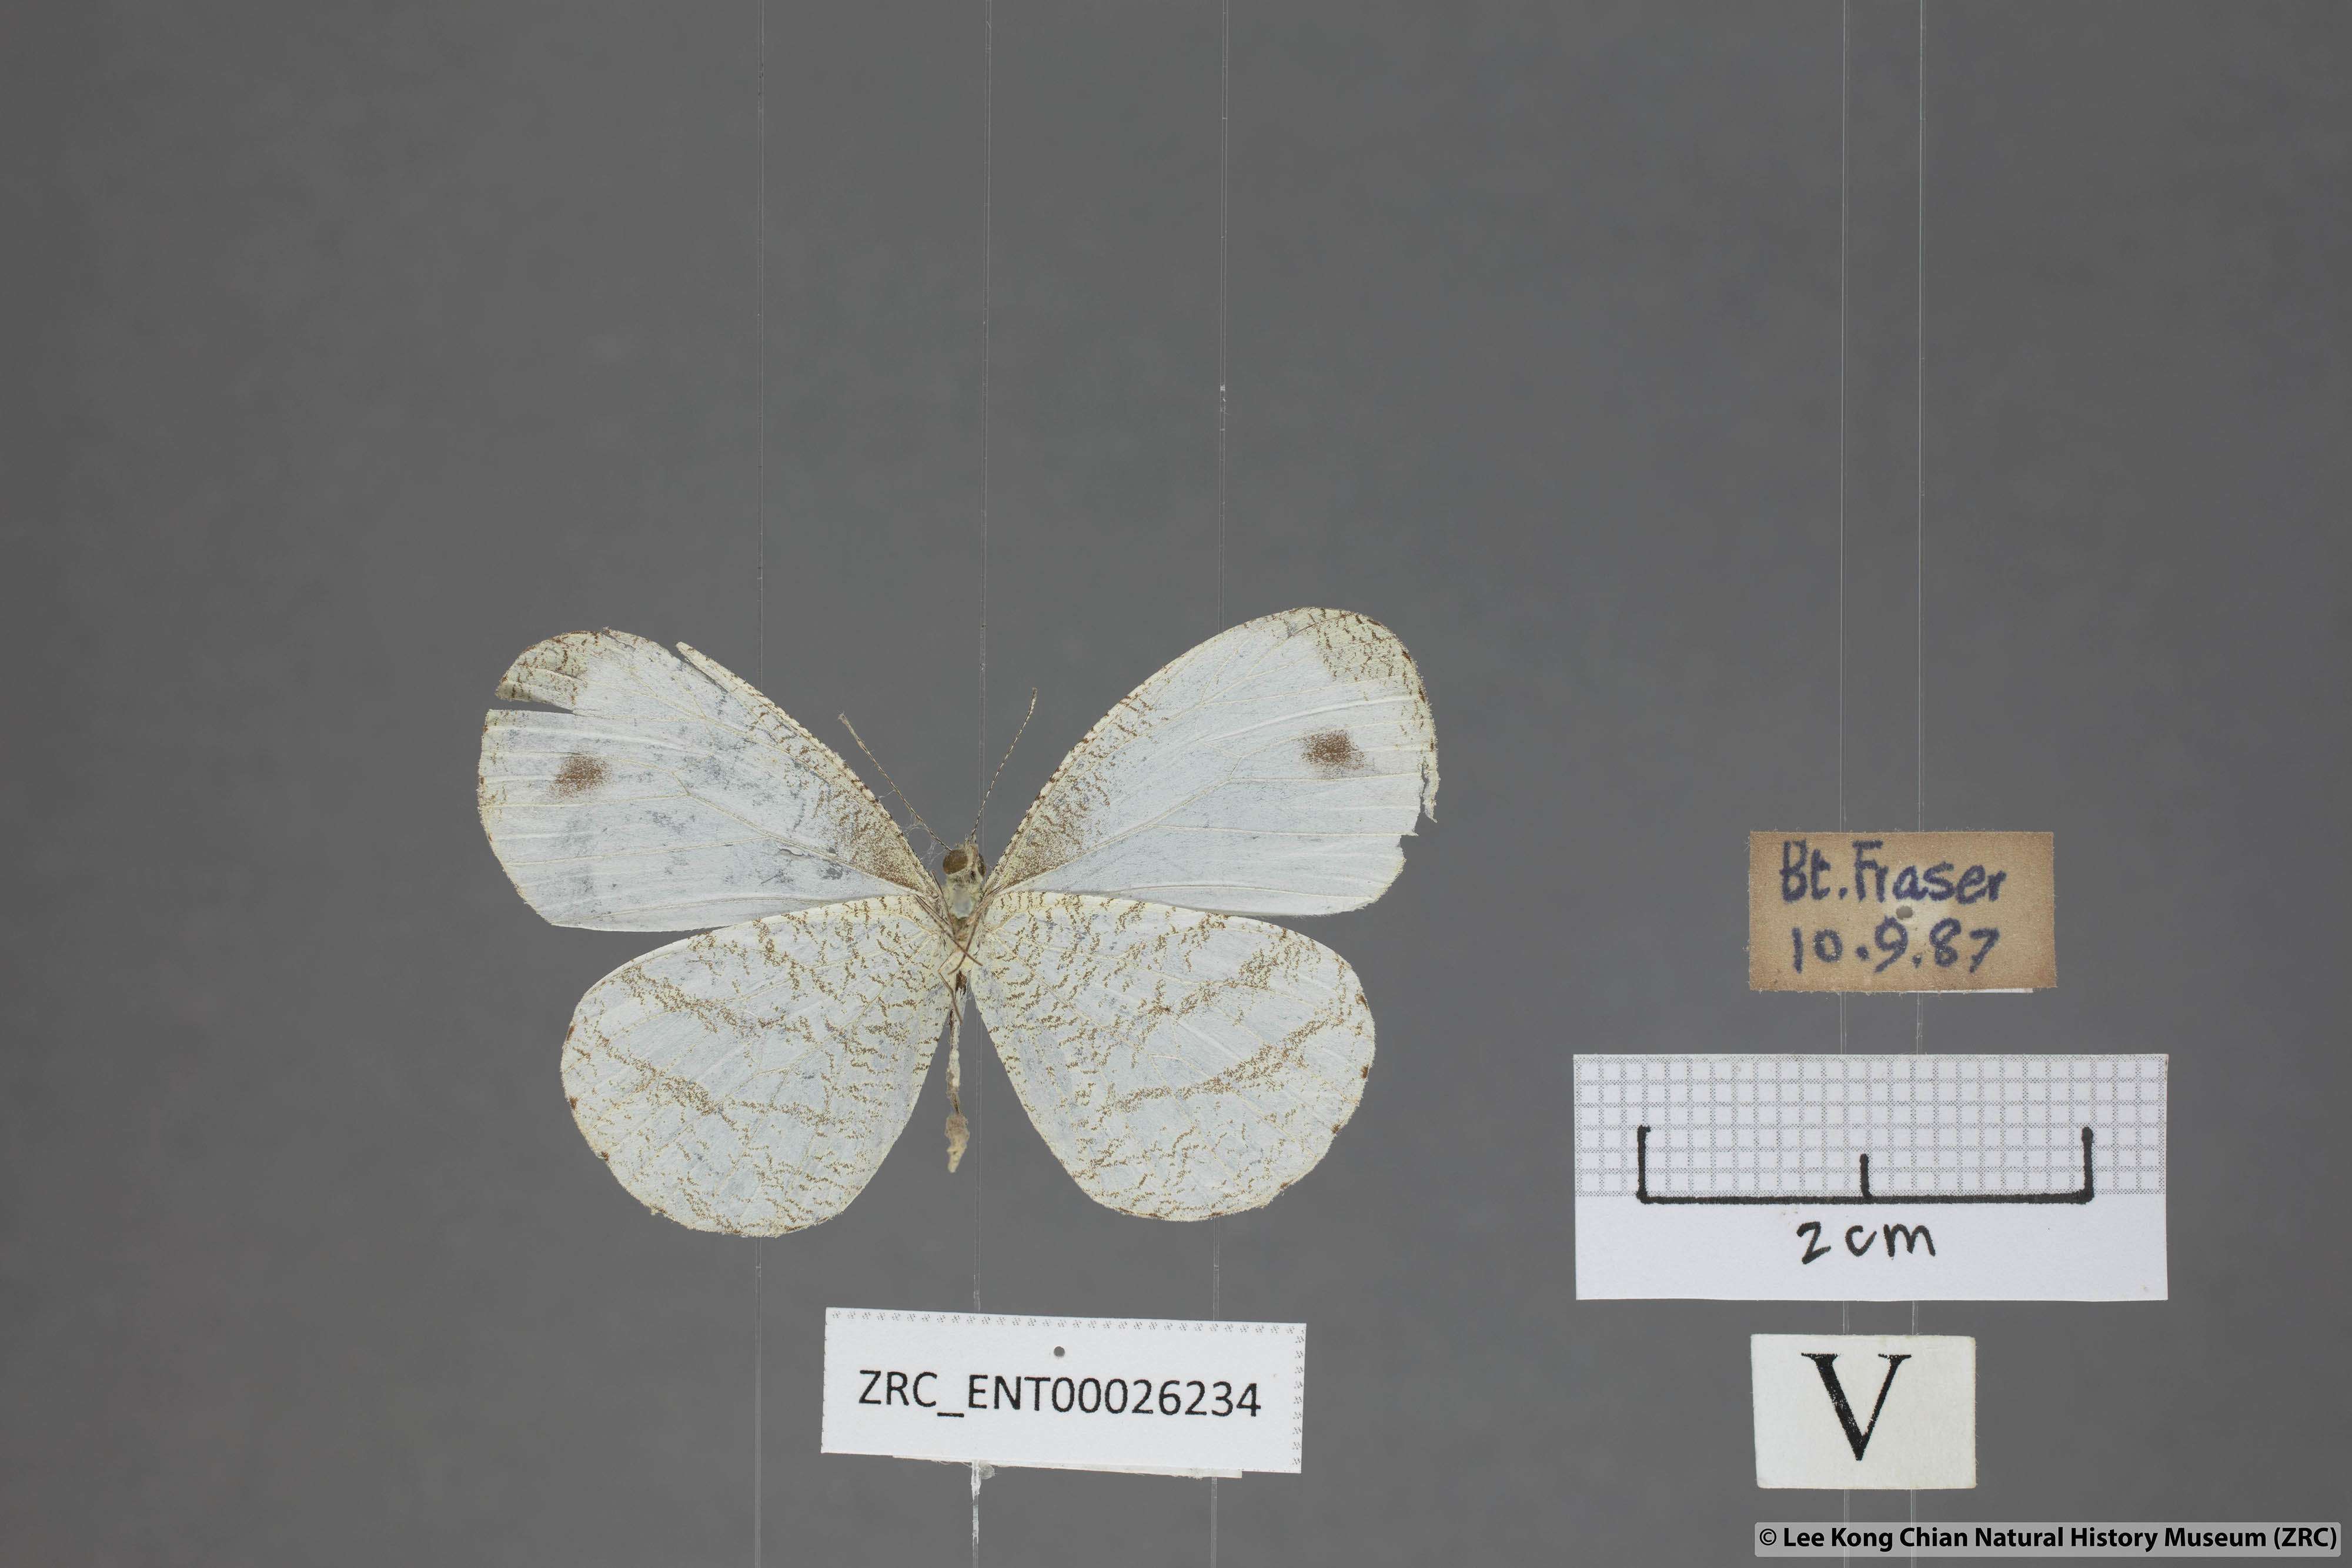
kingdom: Animalia
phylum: Arthropoda
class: Insecta
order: Lepidoptera
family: Pieridae
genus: Leptosia
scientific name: Leptosia nina
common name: Psyche
